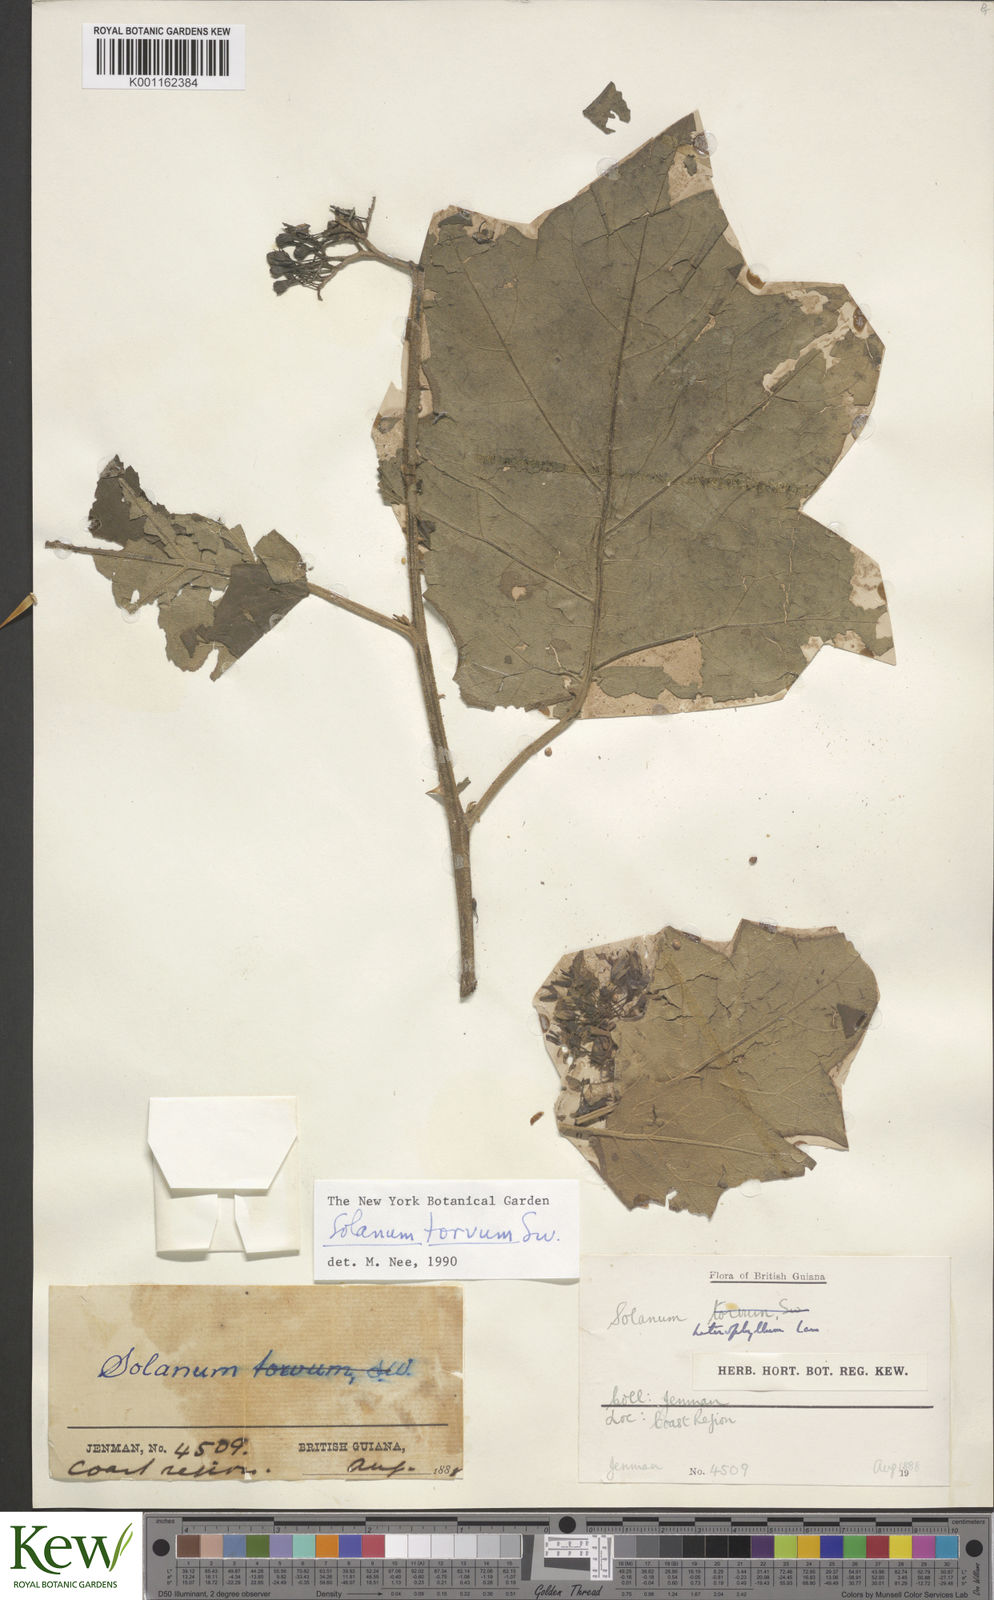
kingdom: Plantae
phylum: Tracheophyta
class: Magnoliopsida
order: Solanales
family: Solanaceae
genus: Solanum
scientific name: Solanum torvum
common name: Turkey berry
